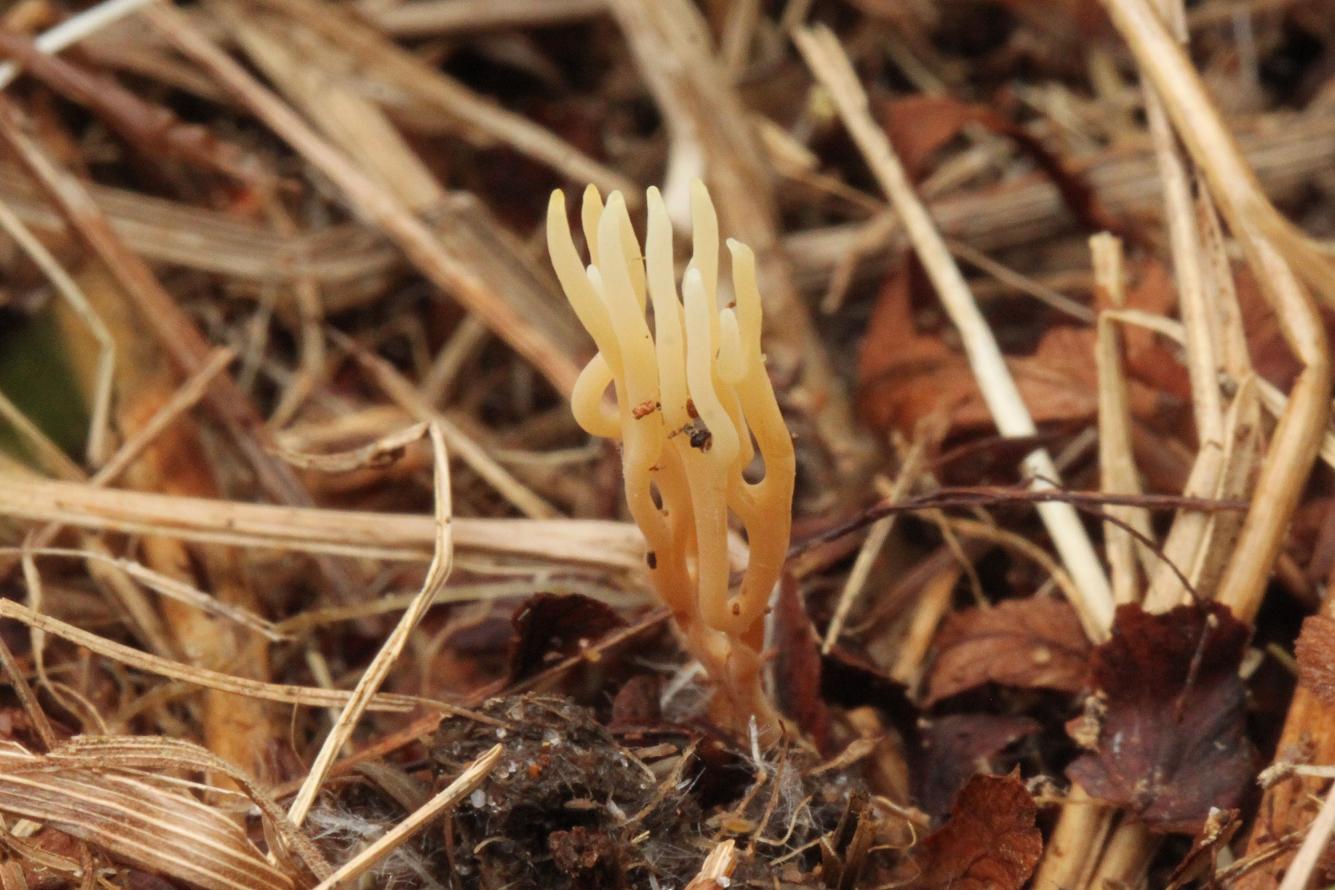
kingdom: Fungi
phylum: Basidiomycota
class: Agaricomycetes
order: Agaricales
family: Clavariaceae
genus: Clavulinopsis
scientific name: Clavulinopsis rufipes
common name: småsporet køllesvamp
